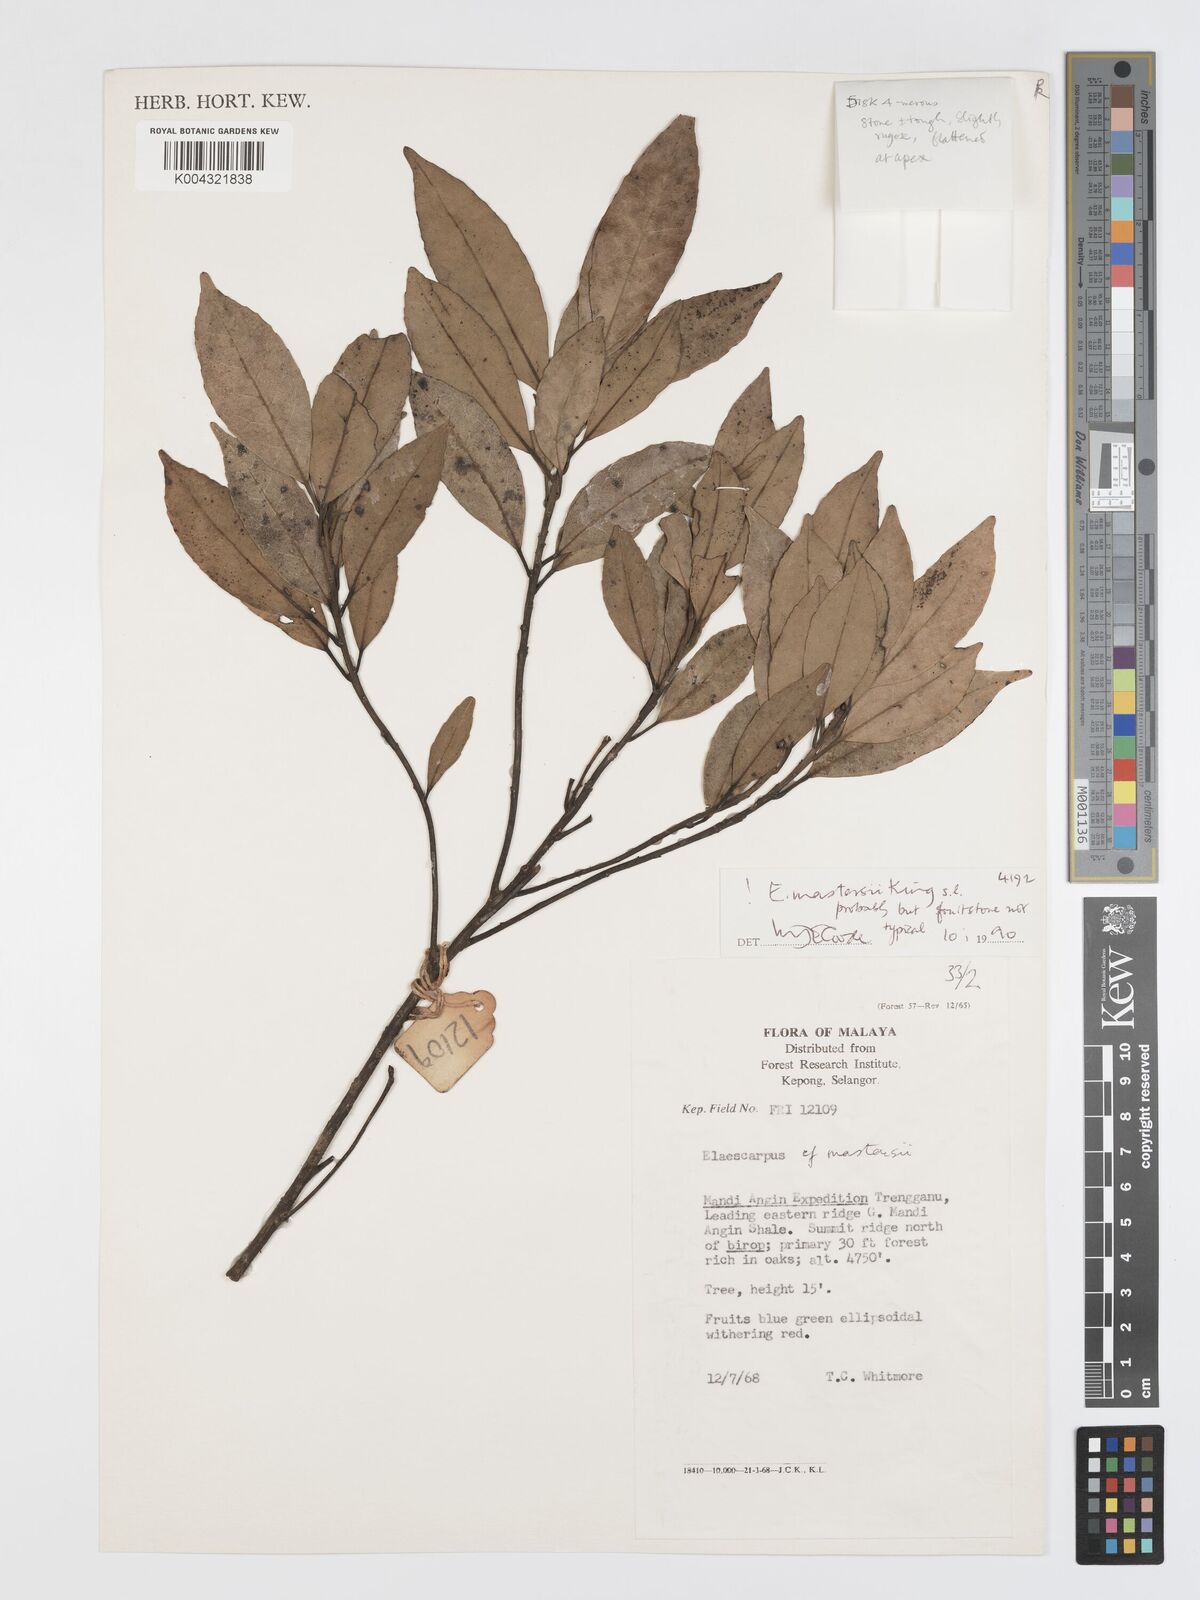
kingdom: Plantae
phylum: Tracheophyta
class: Magnoliopsida
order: Oxalidales
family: Elaeocarpaceae
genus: Elaeocarpus
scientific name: Elaeocarpus mastersii
